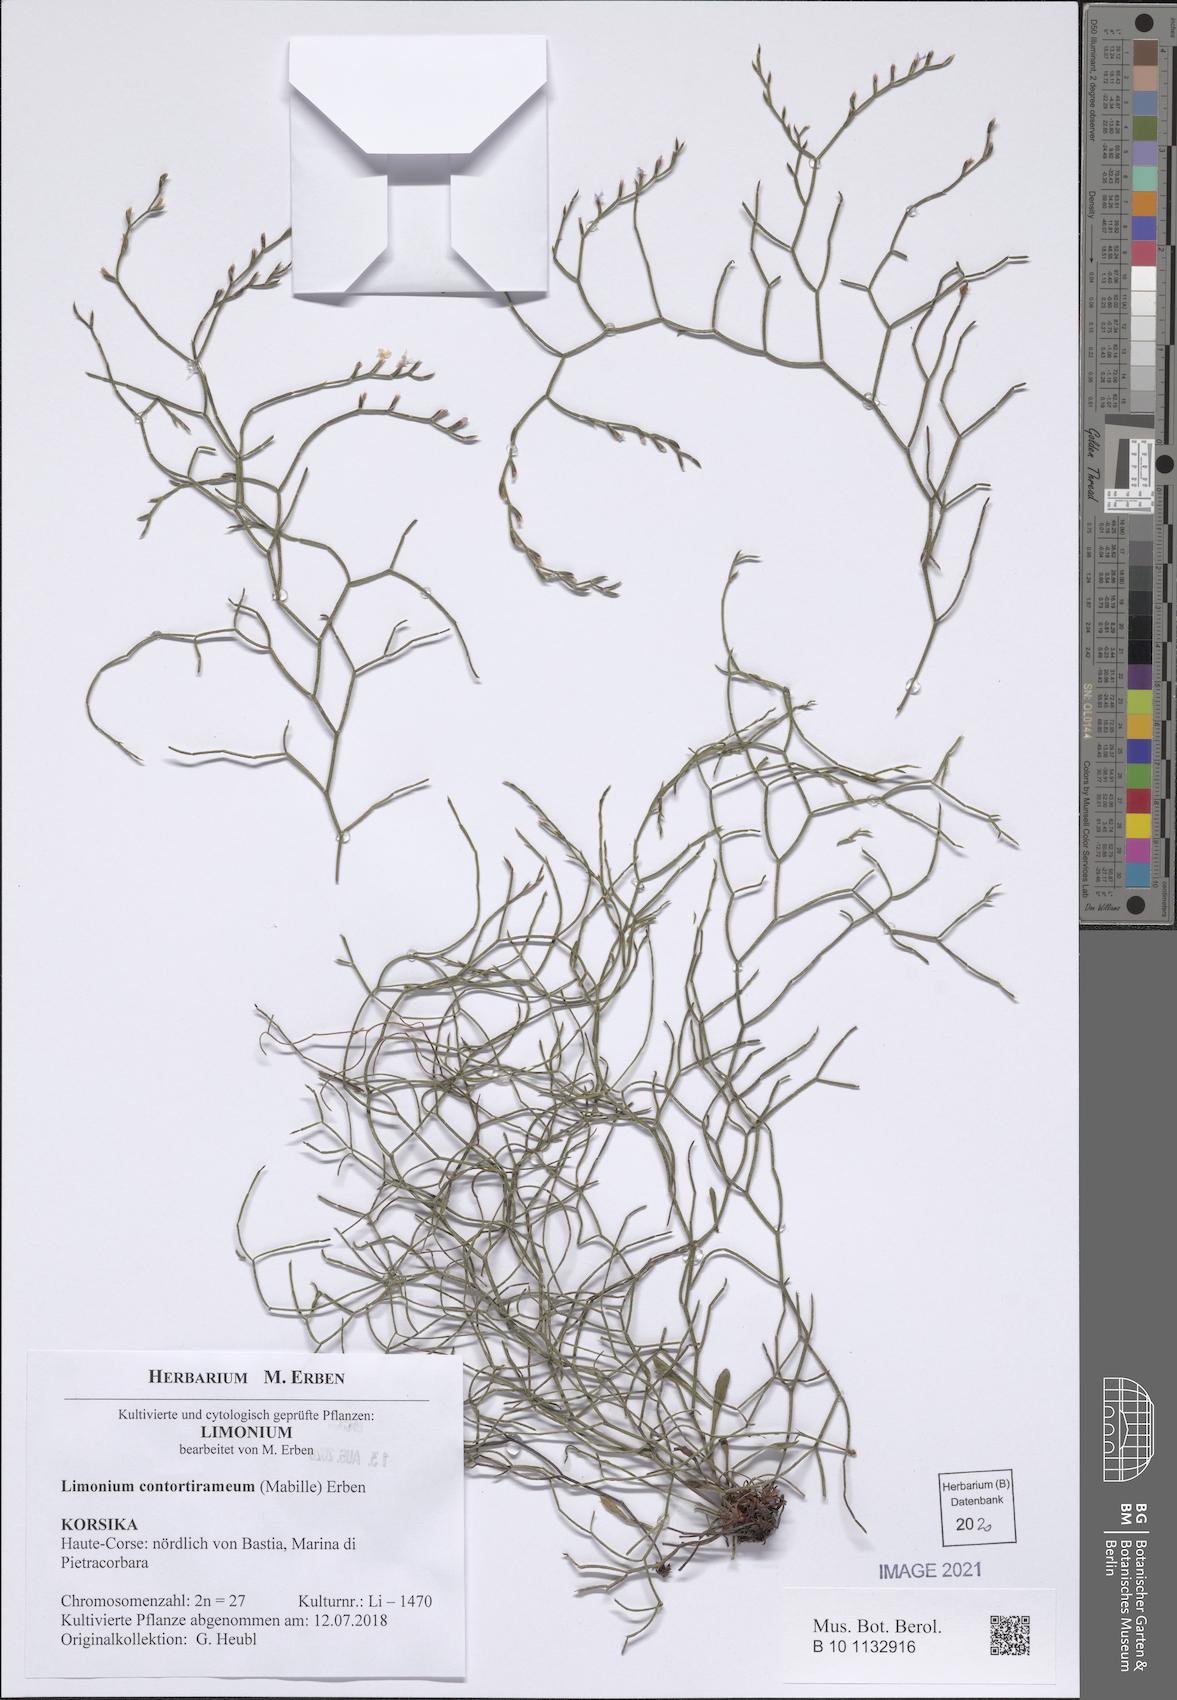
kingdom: Plantae
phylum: Tracheophyta
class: Magnoliopsida
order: Caryophyllales
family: Plumbaginaceae
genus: Limonium
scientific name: Limonium contortirameum
